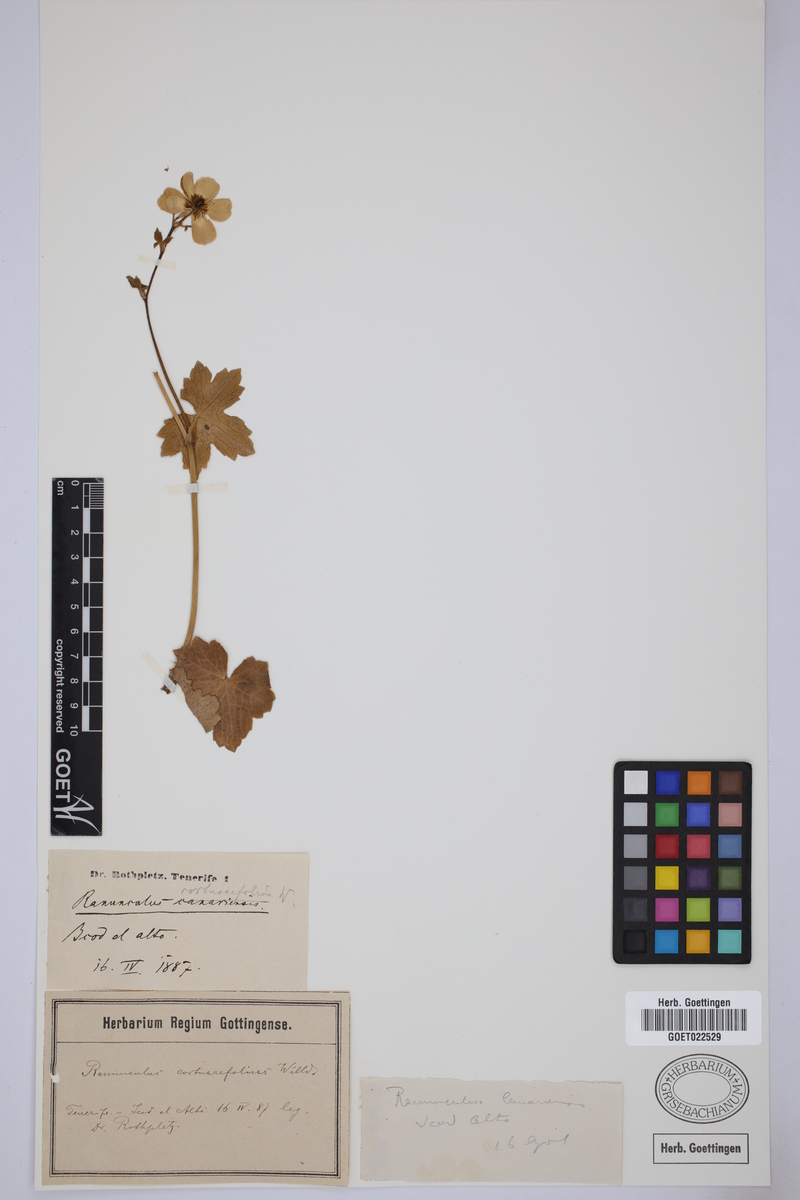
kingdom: Plantae
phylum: Tracheophyta
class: Magnoliopsida
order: Ranunculales
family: Ranunculaceae
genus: Ranunculus
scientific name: Ranunculus cortusifolius
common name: Azores buttercup
